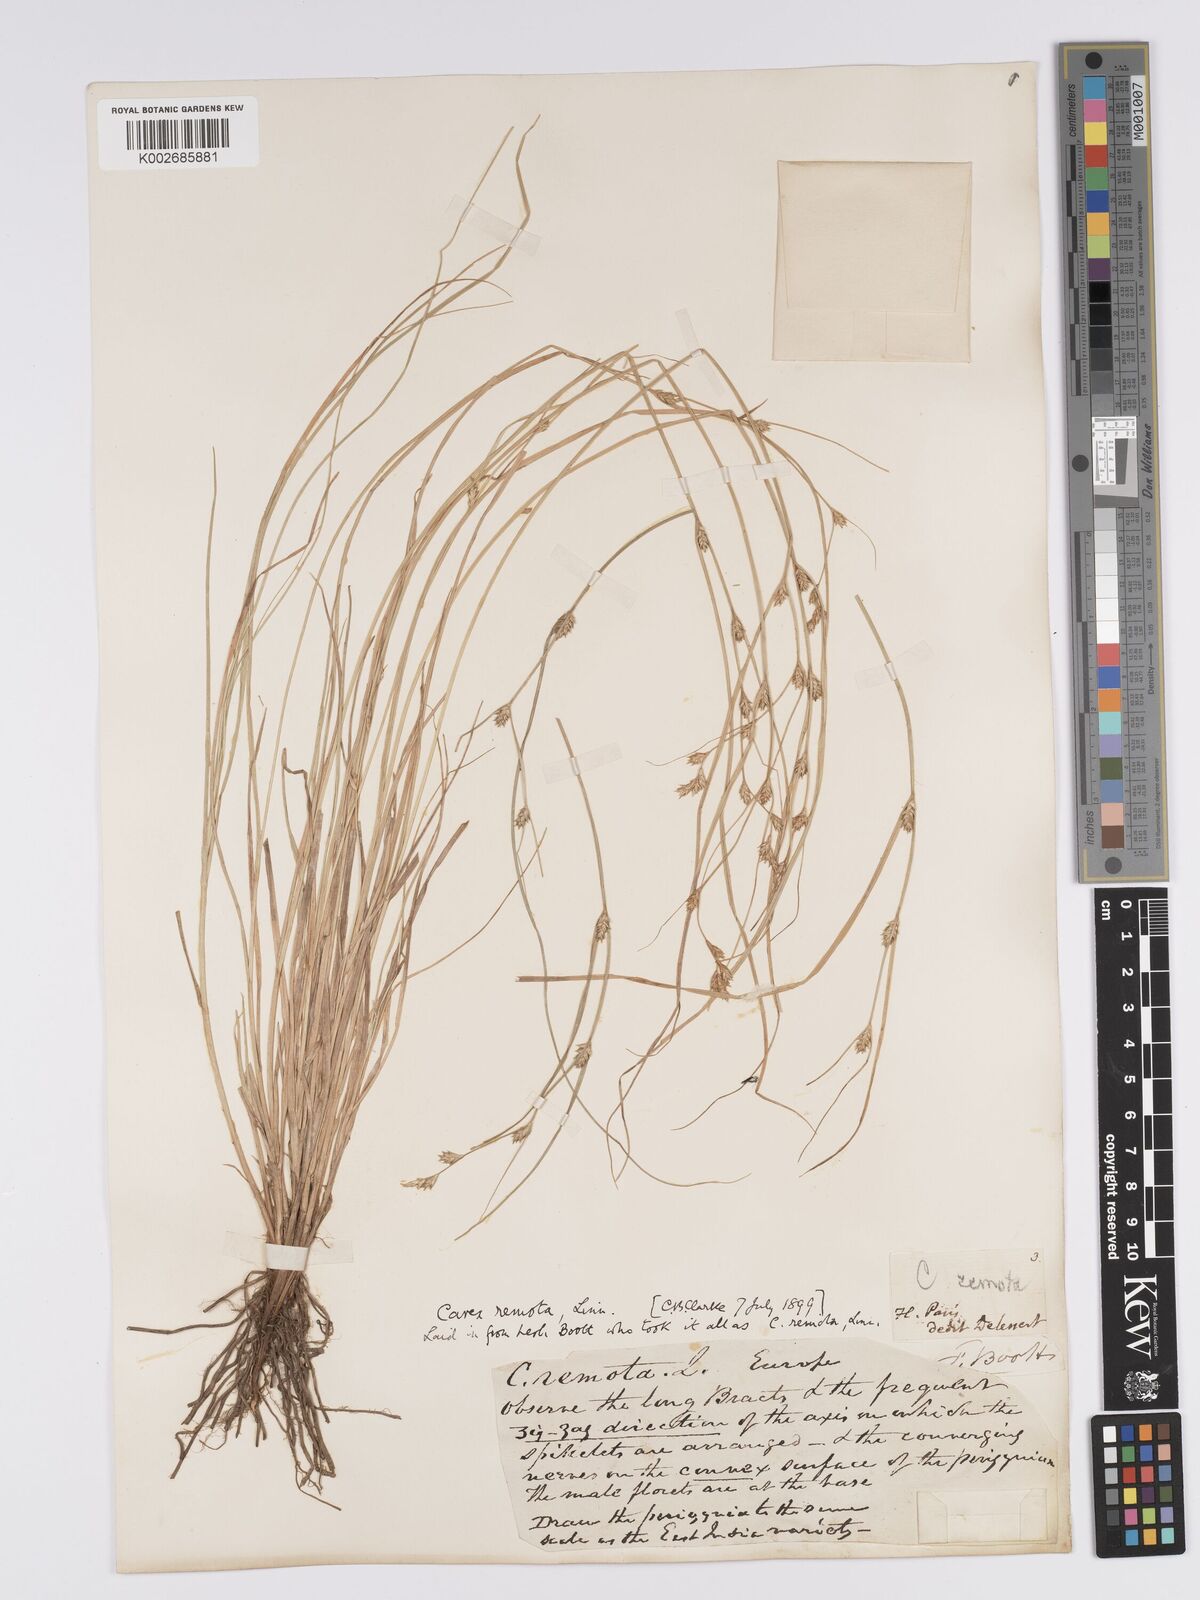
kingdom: Plantae
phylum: Tracheophyta
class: Liliopsida
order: Poales
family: Cyperaceae
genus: Carex
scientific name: Carex remota
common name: Remote sedge
